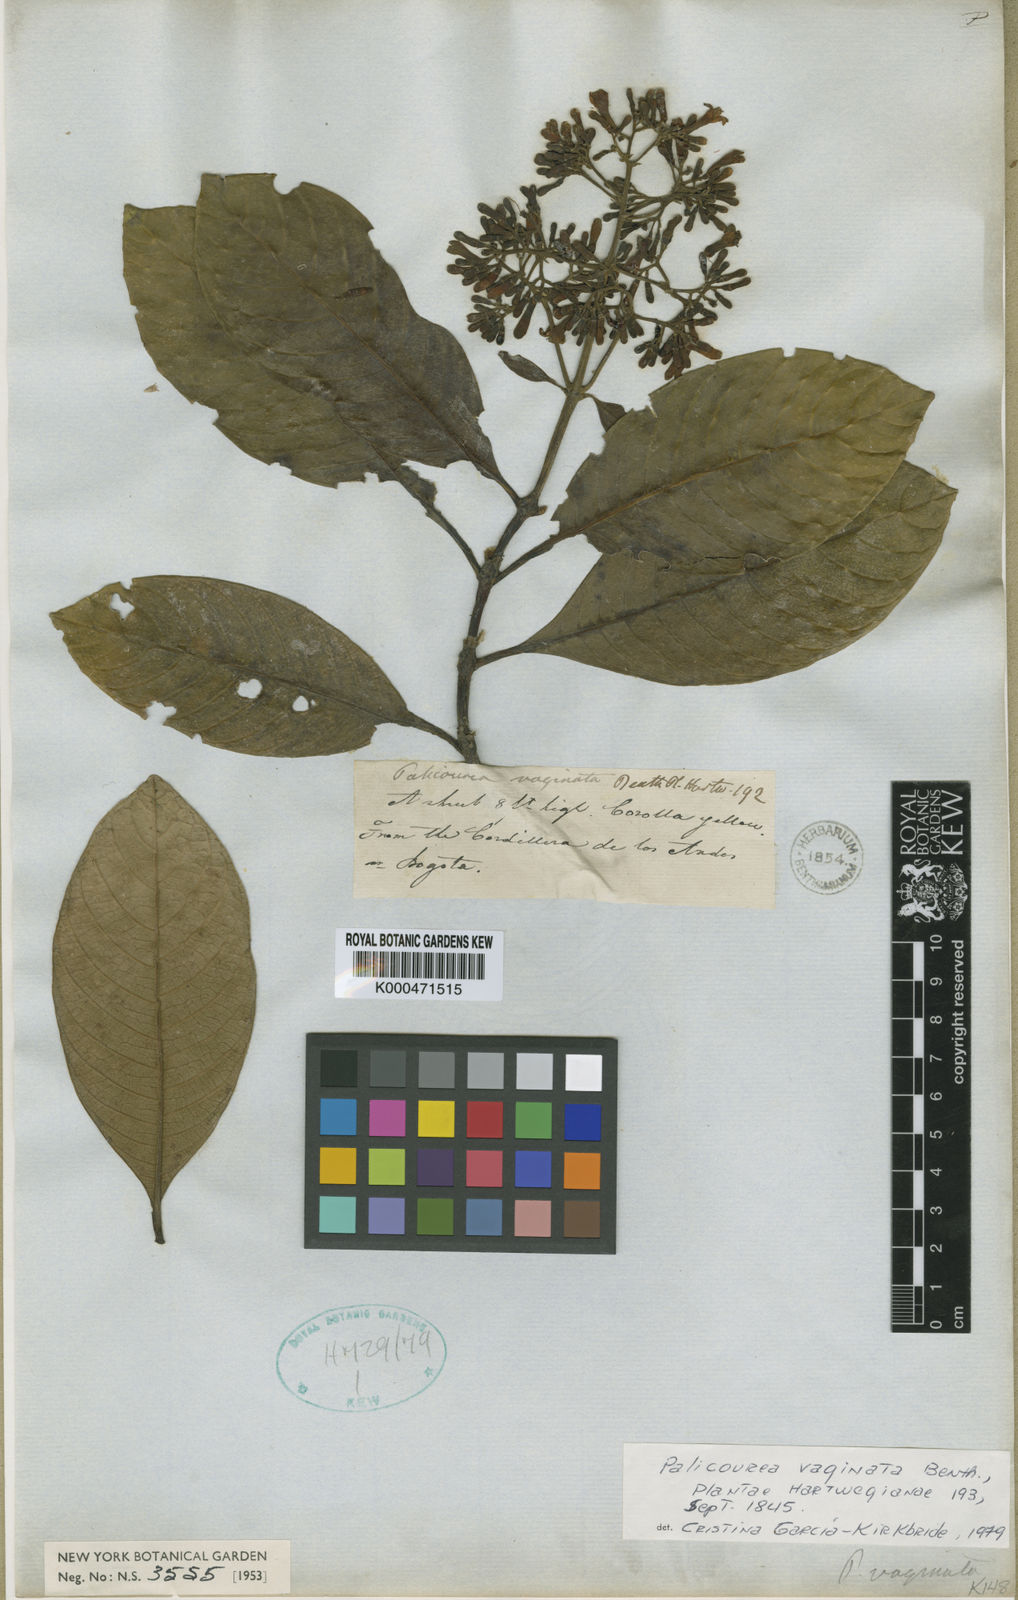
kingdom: Plantae
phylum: Tracheophyta
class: Magnoliopsida
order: Gentianales
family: Rubiaceae
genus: Palicourea
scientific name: Palicourea sulphurea
